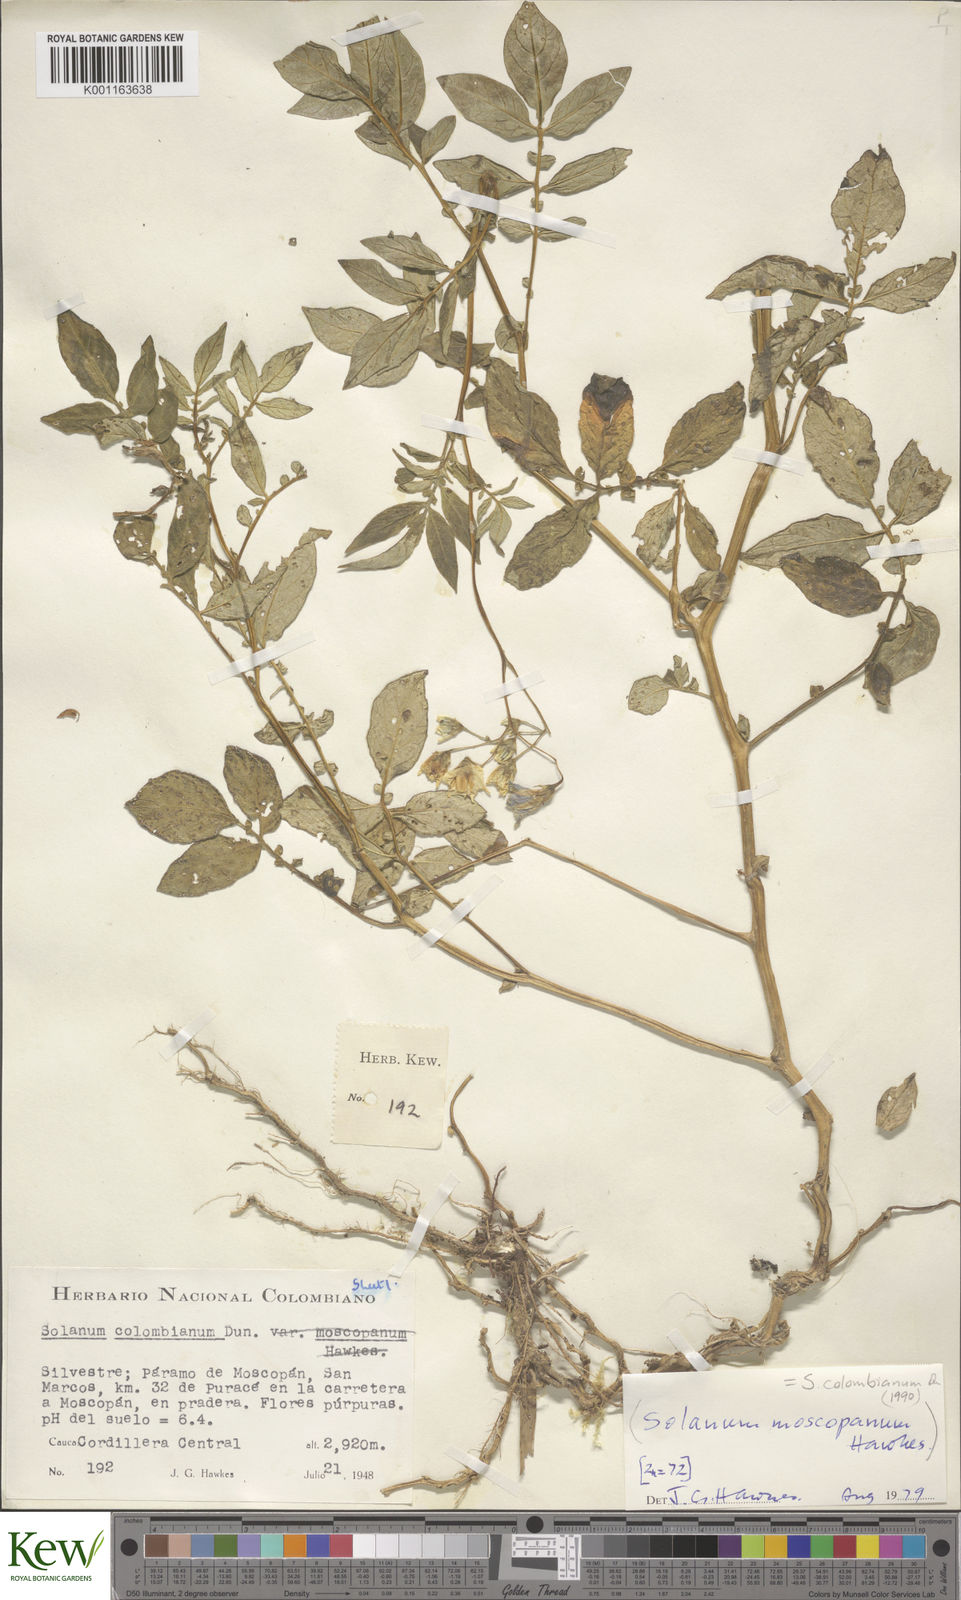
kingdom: Plantae
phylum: Tracheophyta
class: Magnoliopsida
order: Solanales
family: Solanaceae
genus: Solanum
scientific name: Solanum colombianum
